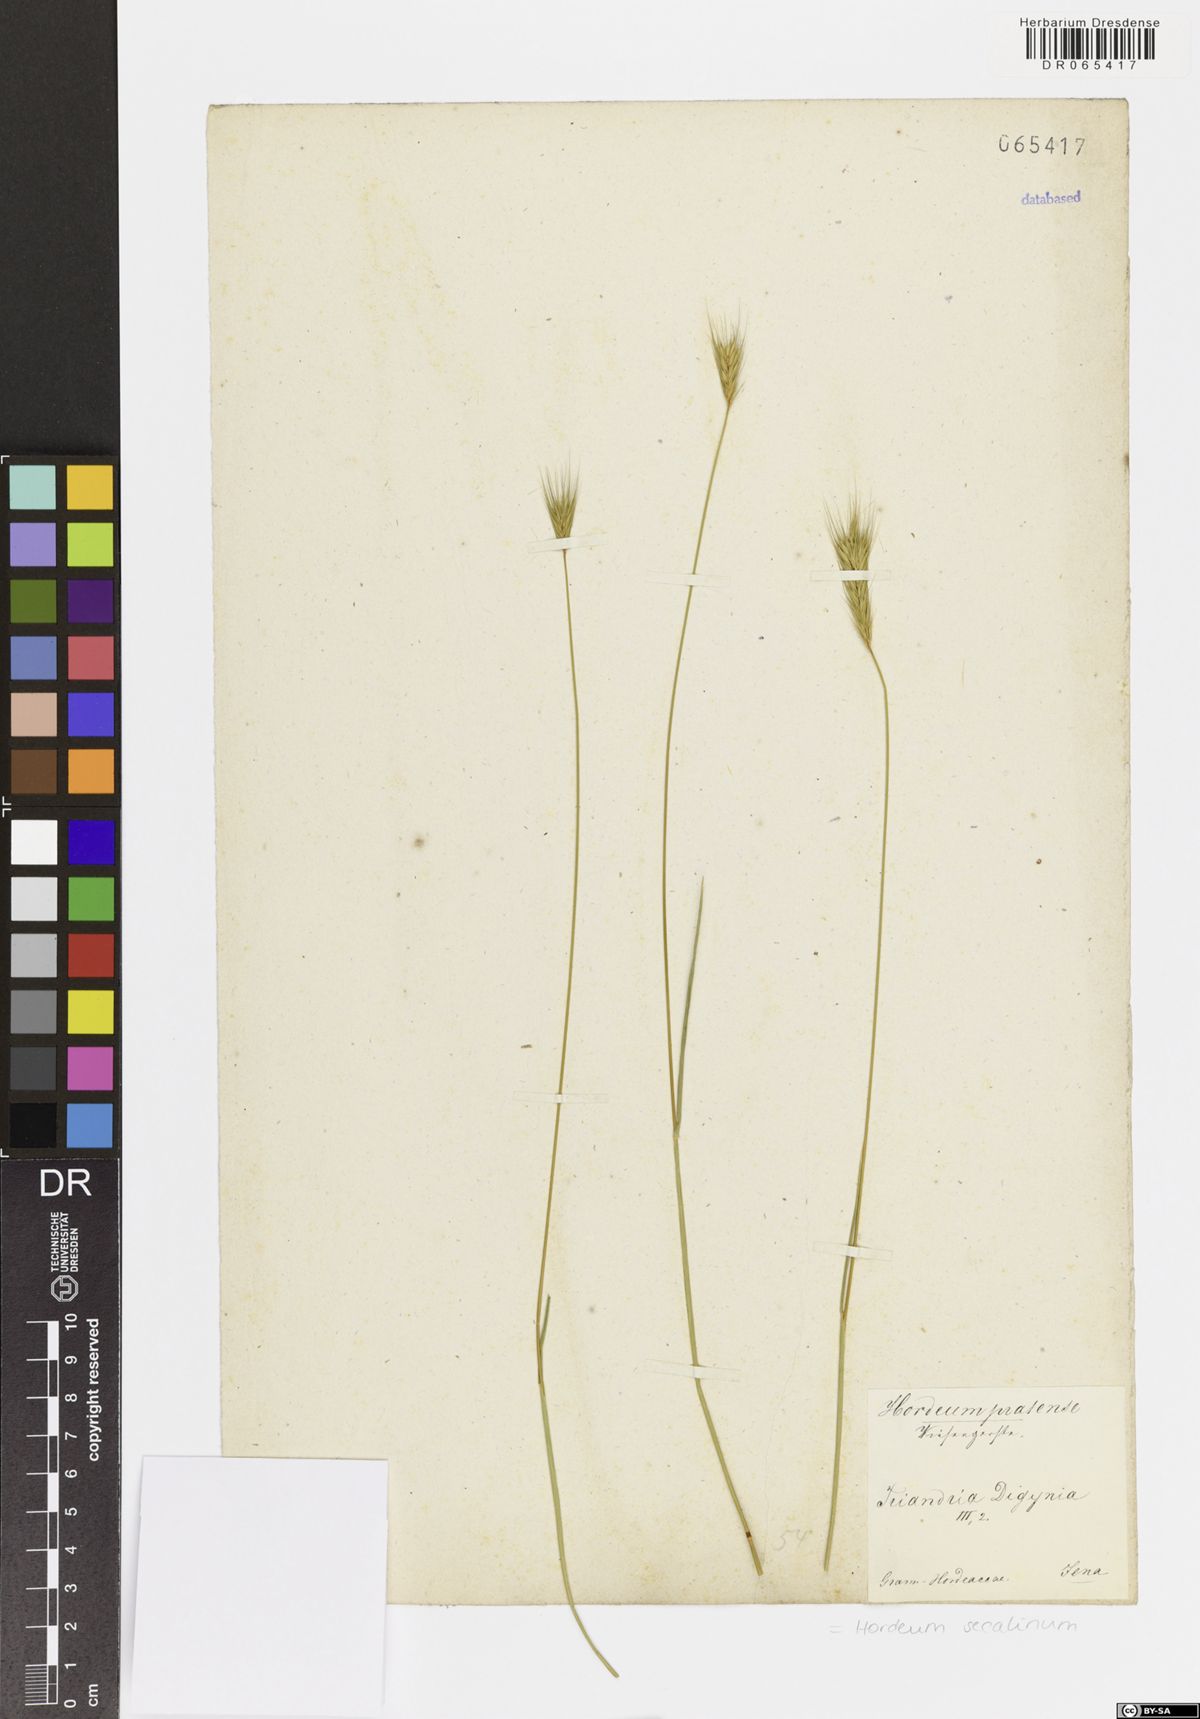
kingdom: Plantae
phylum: Tracheophyta
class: Liliopsida
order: Poales
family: Poaceae
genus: Hordeum
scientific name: Hordeum secalinum
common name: Meadow barley
